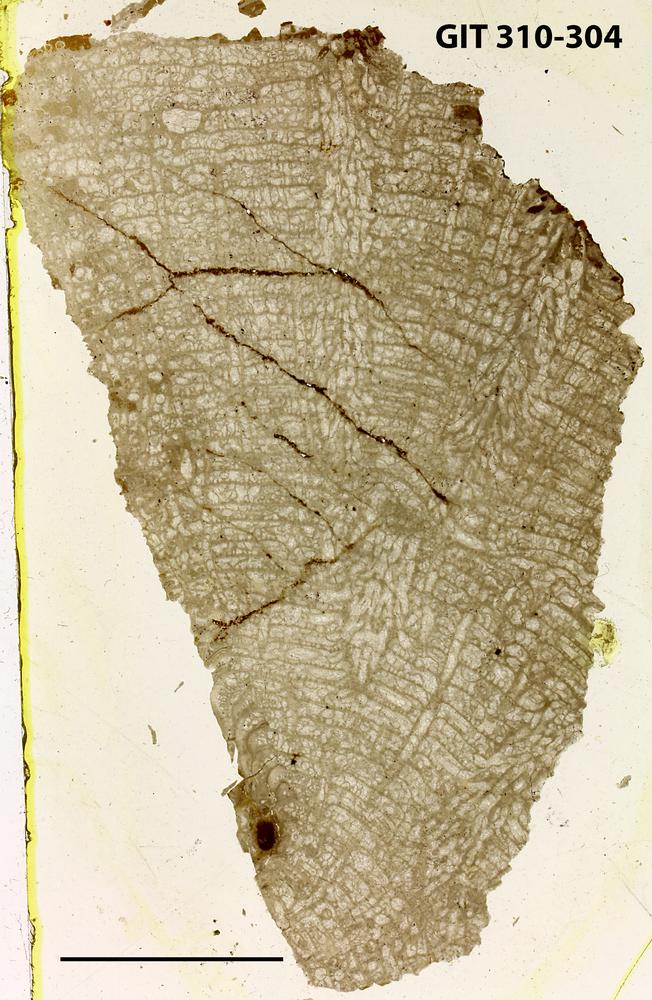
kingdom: Animalia
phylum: Porifera
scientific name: Porifera
